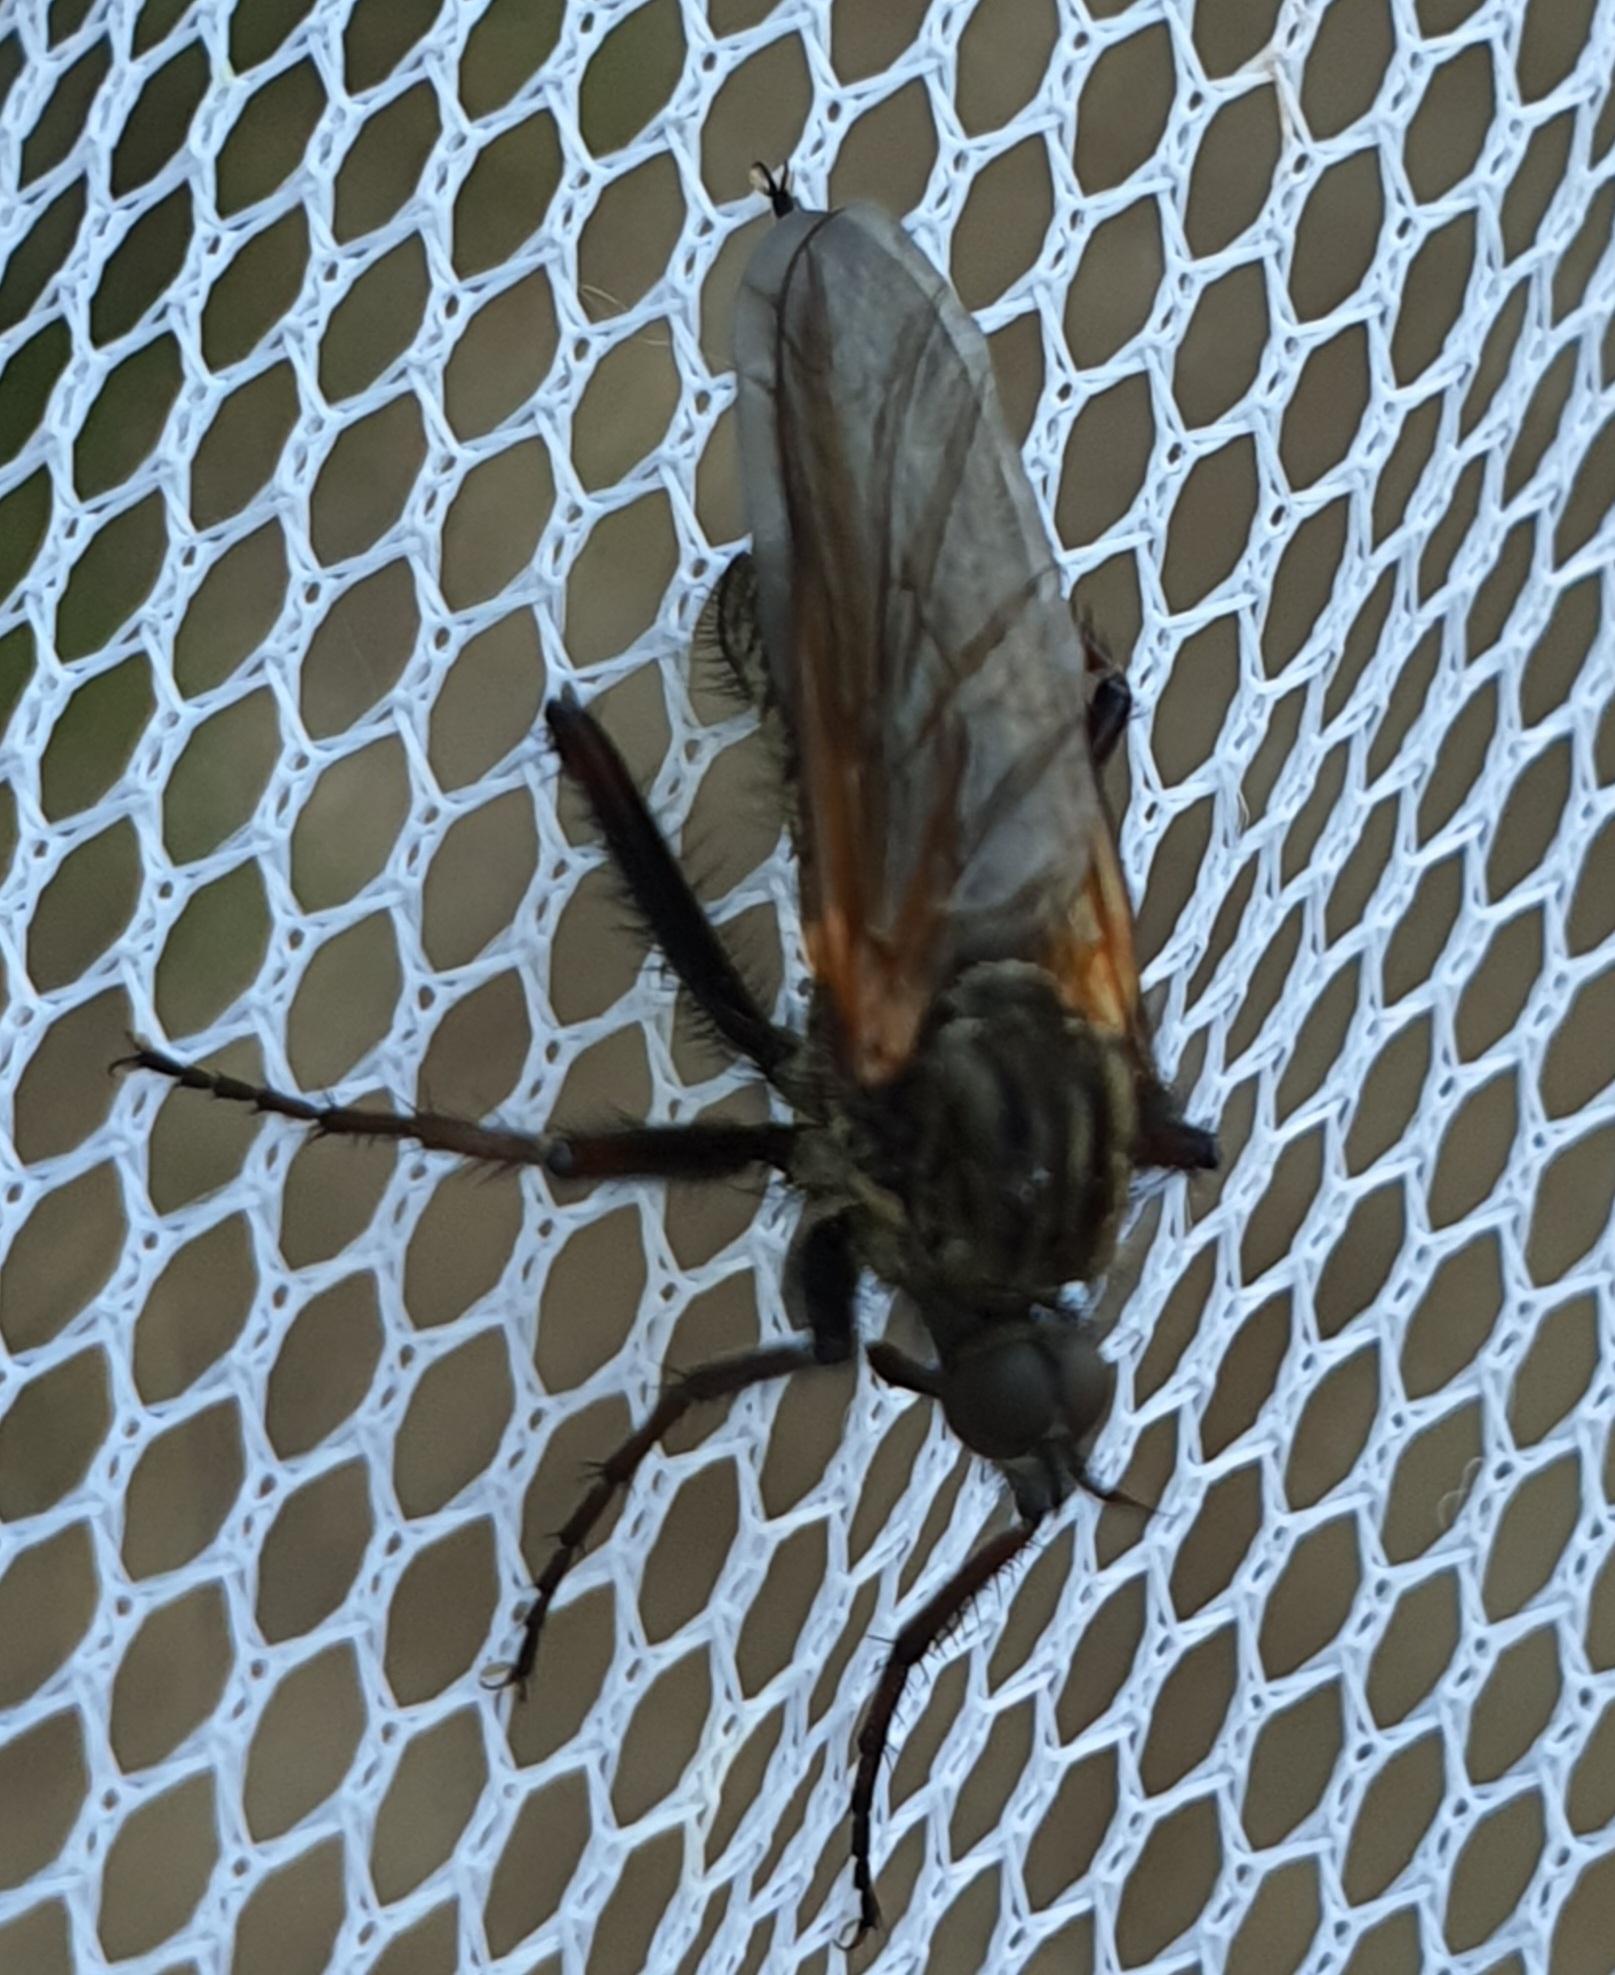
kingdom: Animalia
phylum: Arthropoda
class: Insecta
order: Diptera
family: Empididae
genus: Empis
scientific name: Empis tessellata
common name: Stor danseflue
